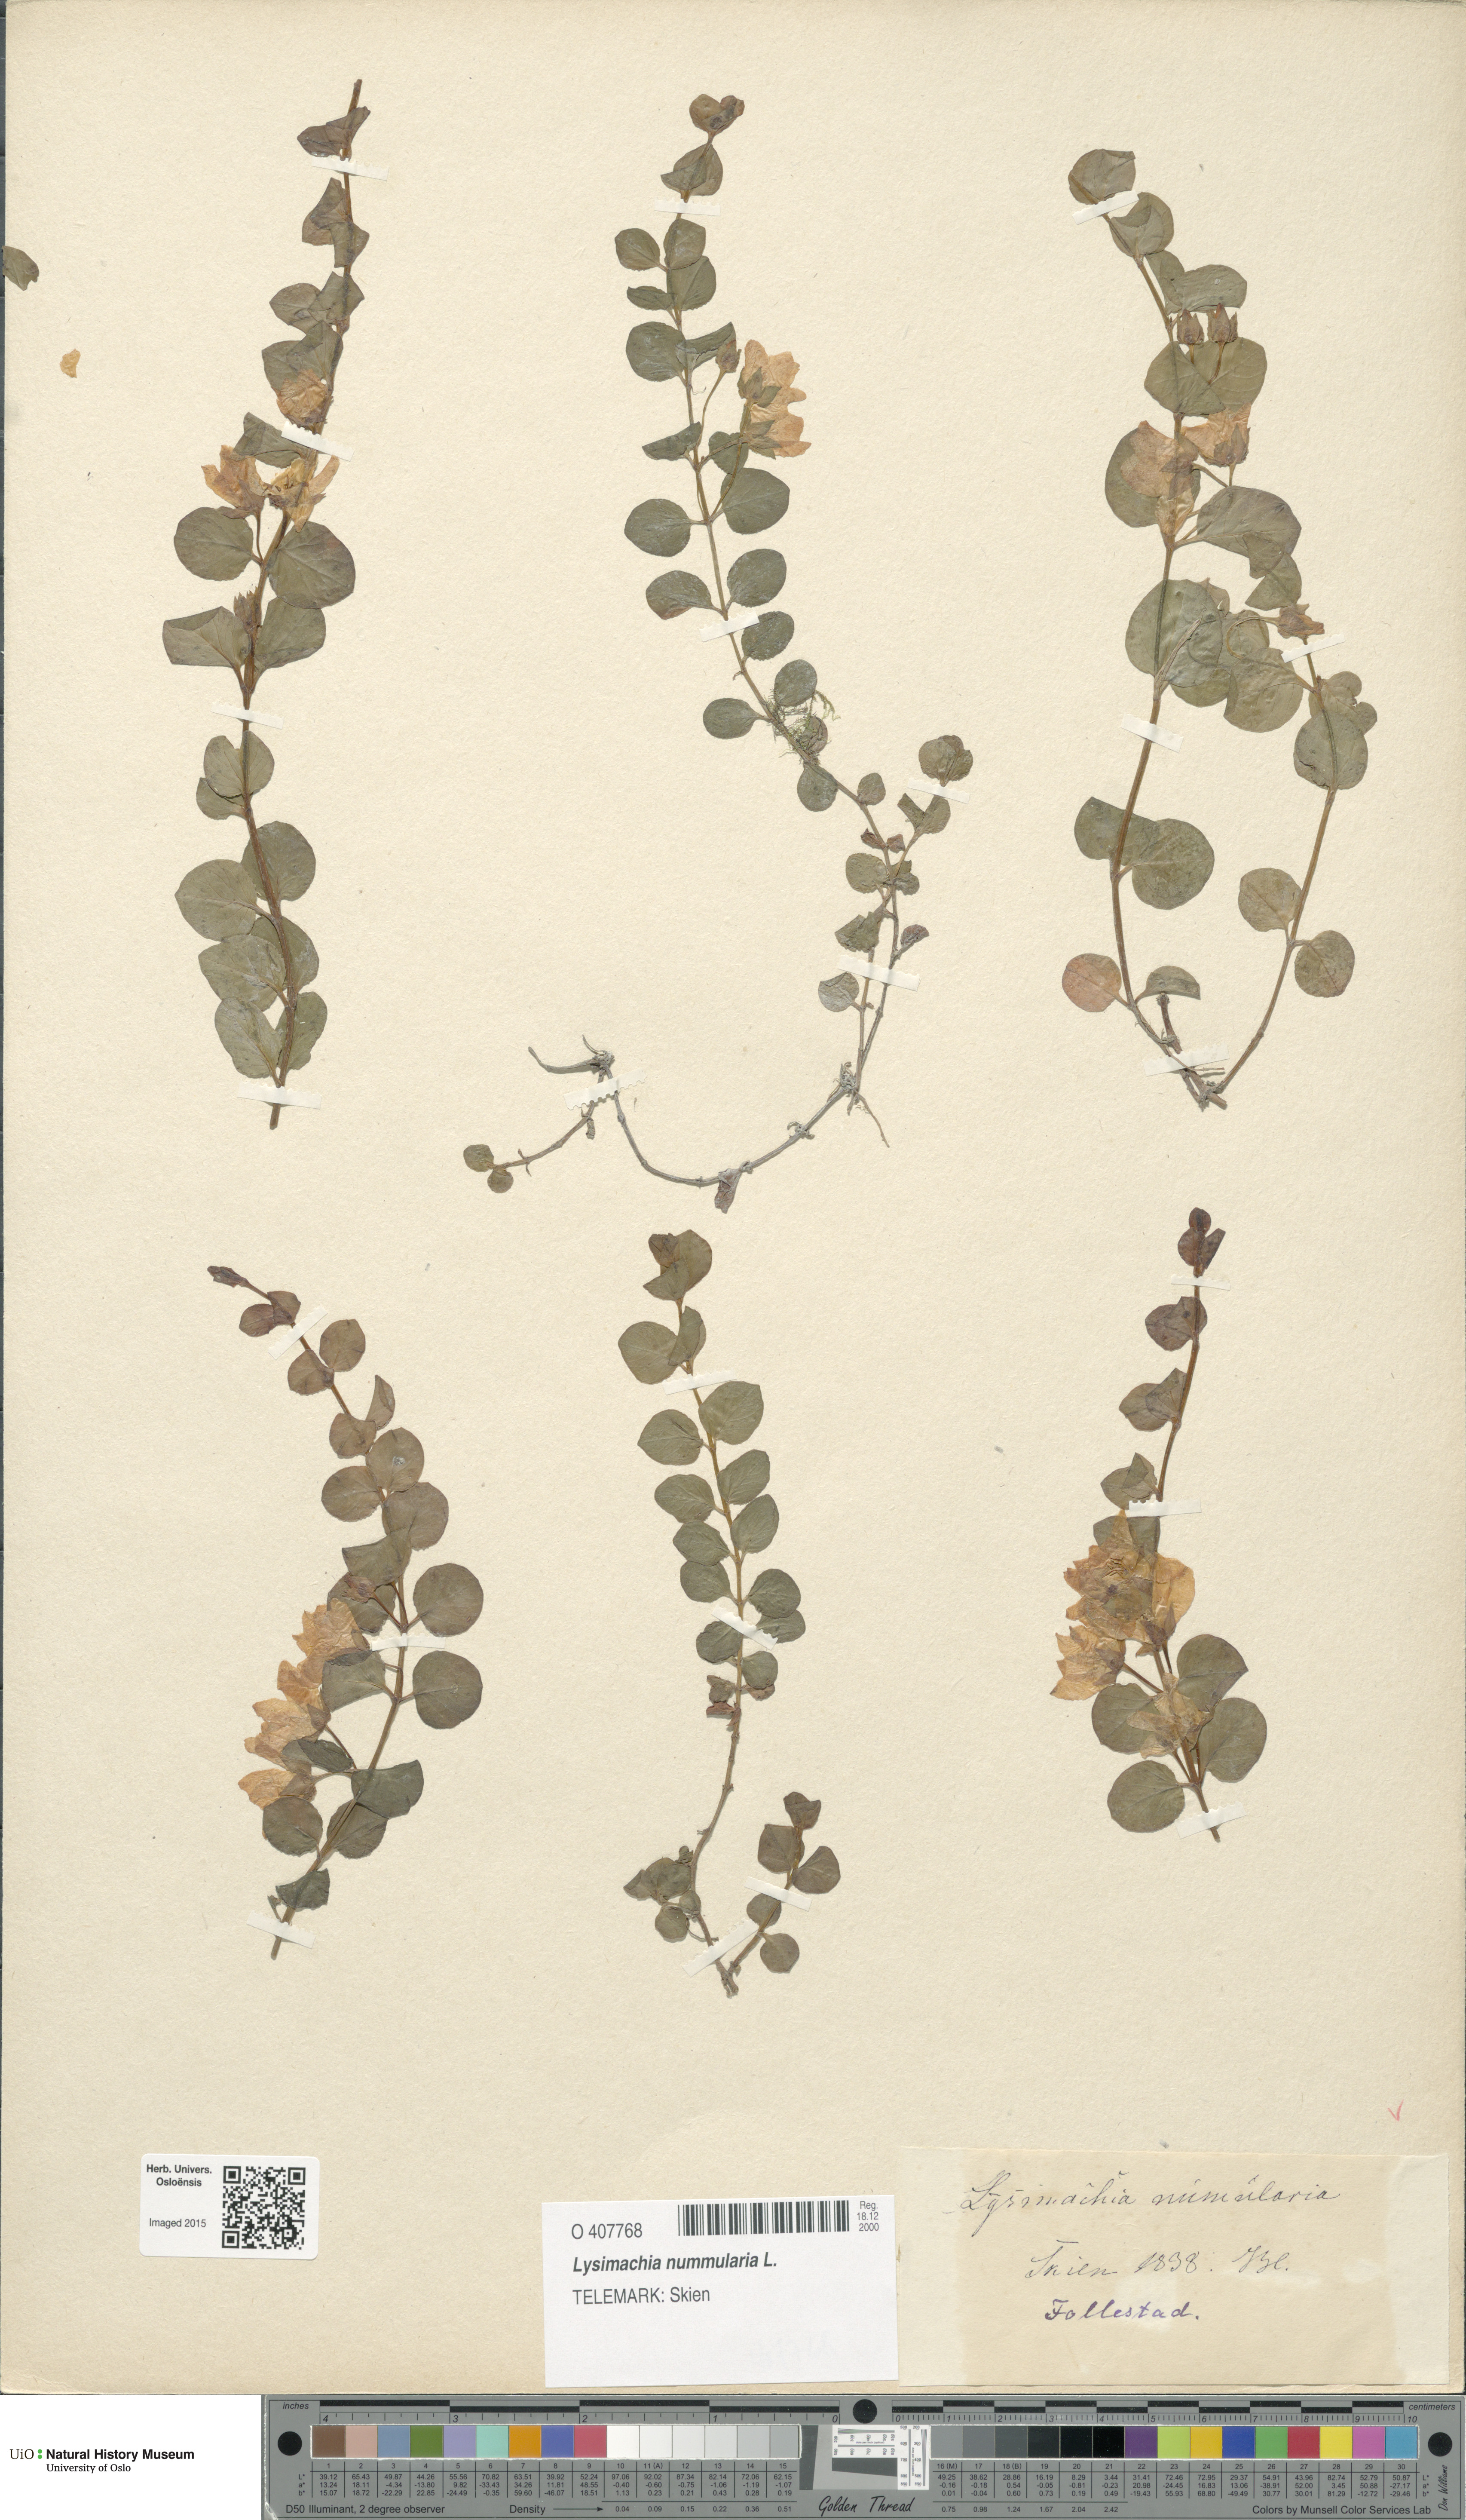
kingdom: Plantae
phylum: Tracheophyta
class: Magnoliopsida
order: Ericales
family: Primulaceae
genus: Lysimachia
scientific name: Lysimachia nummularia
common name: Moneywort
